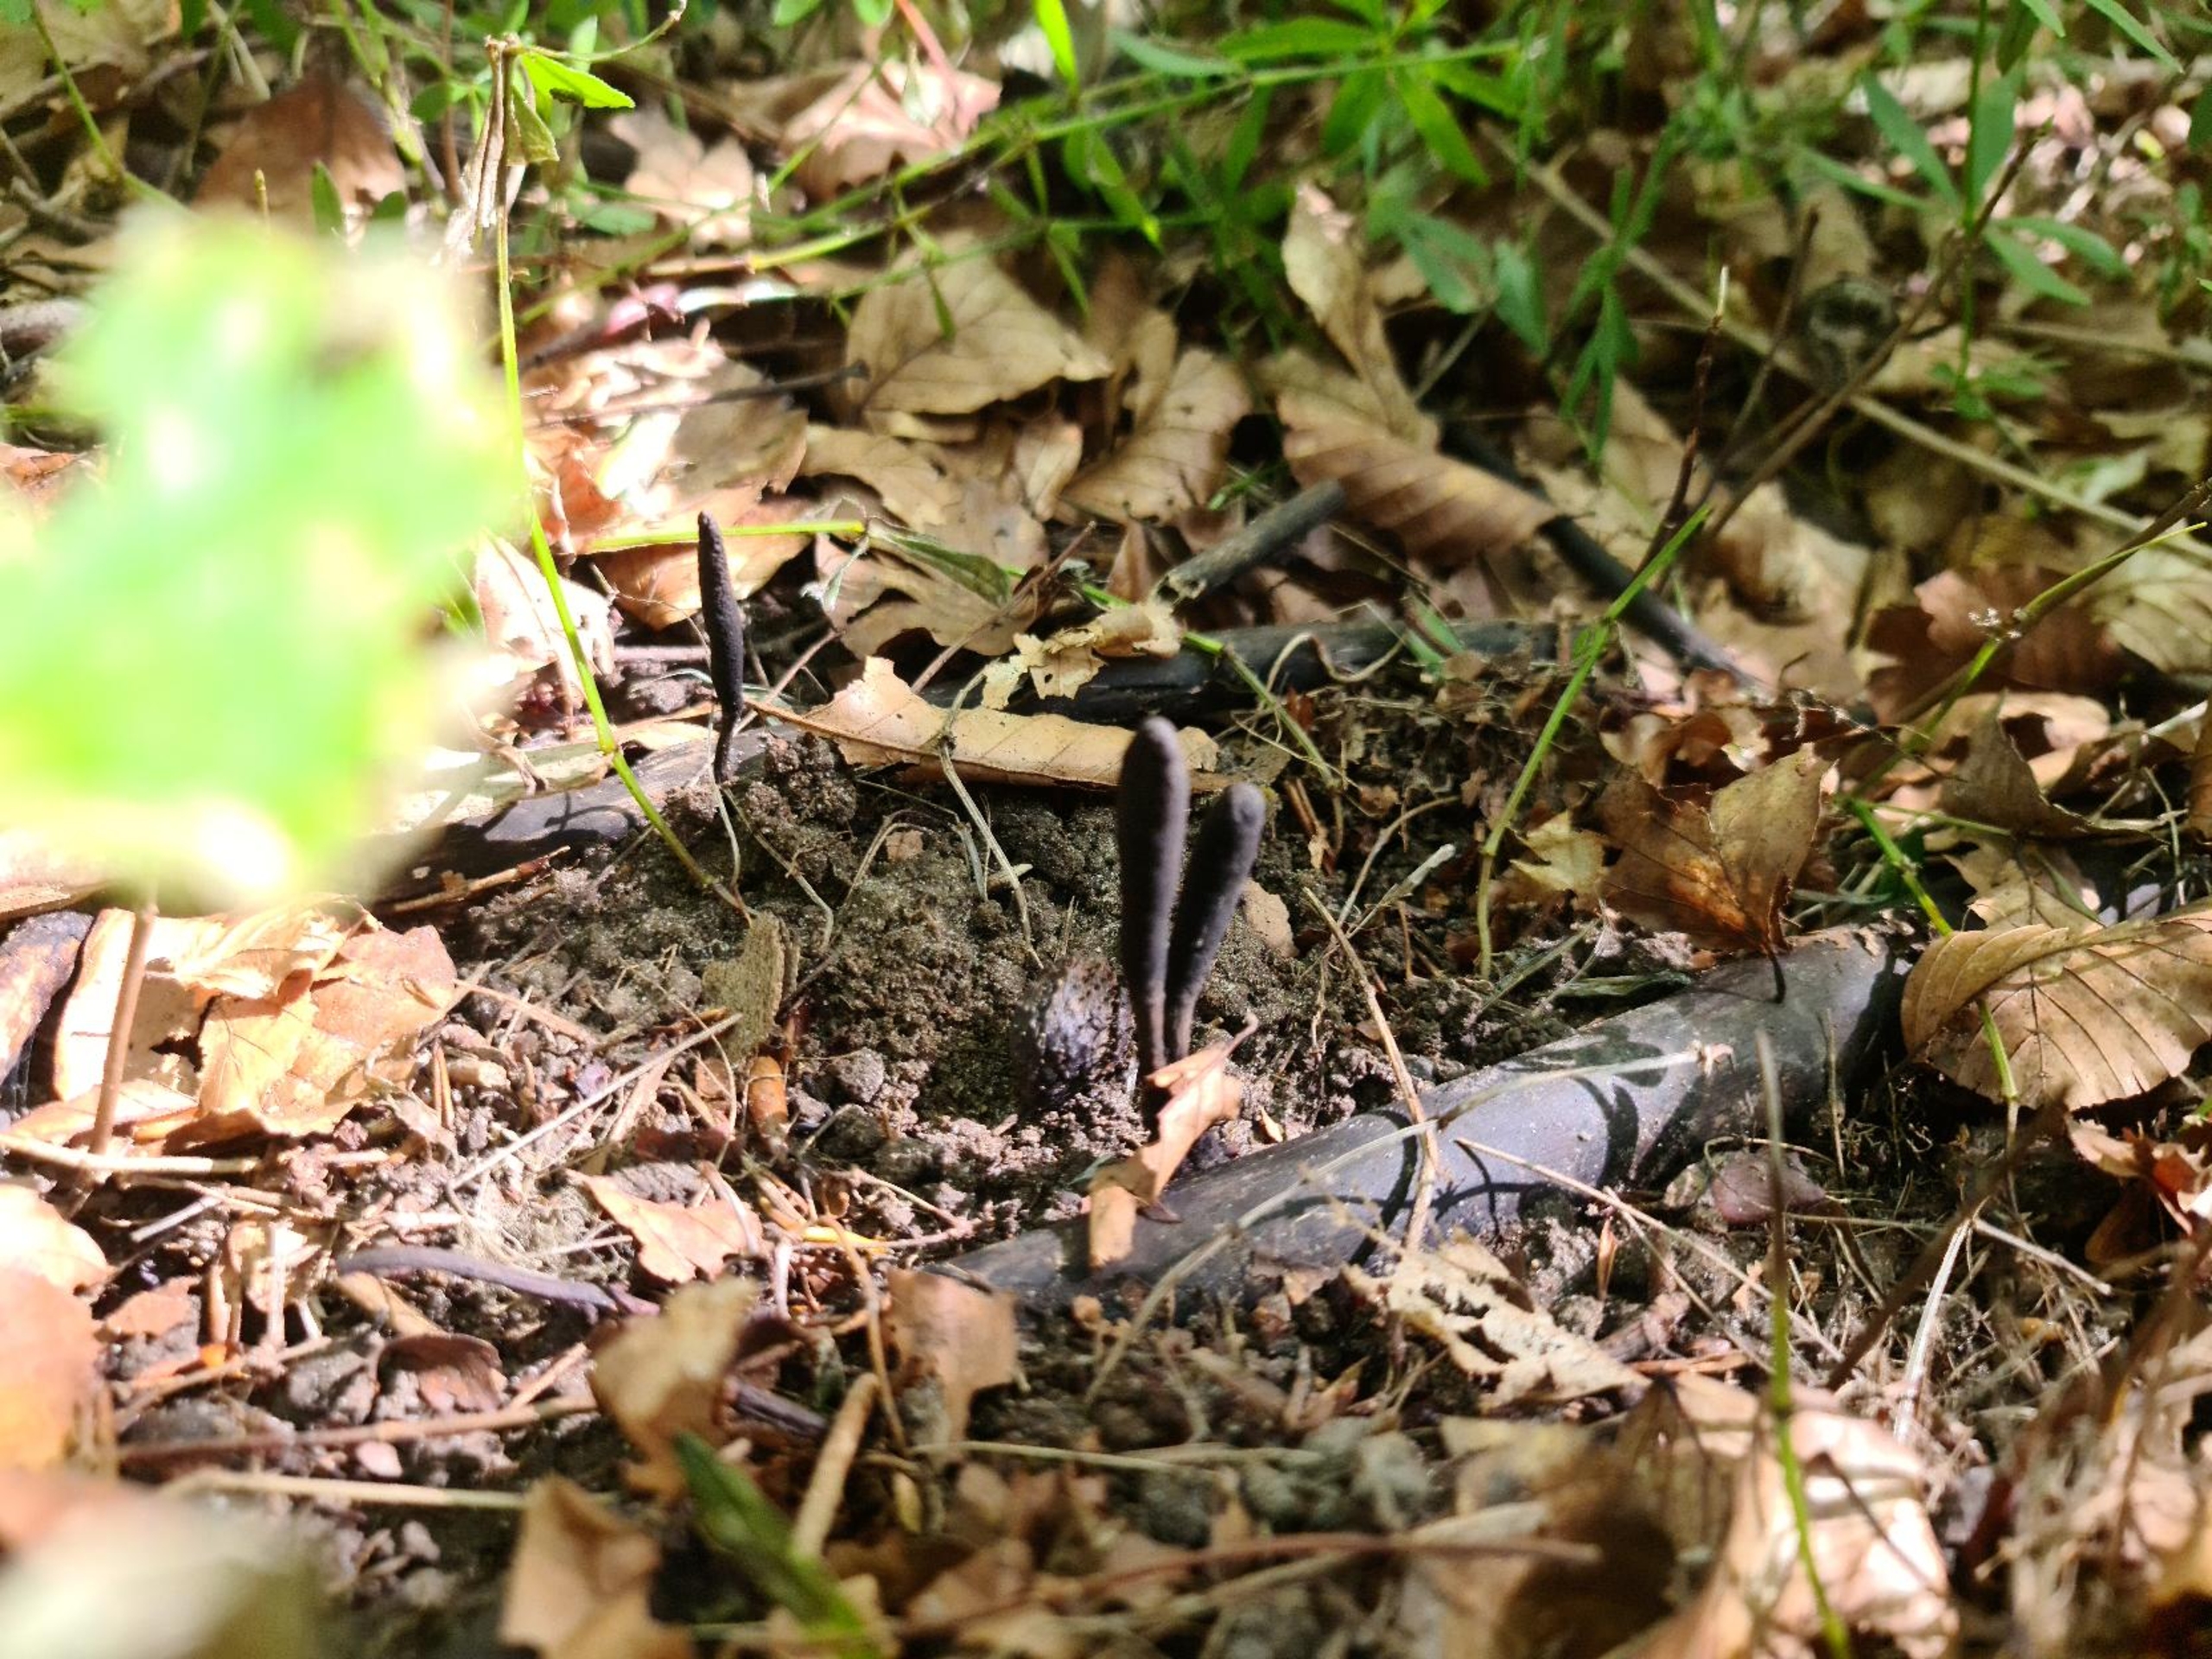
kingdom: Fungi
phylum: Ascomycota
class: Sordariomycetes
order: Xylariales
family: Xylariaceae
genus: Xylaria
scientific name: Xylaria longipes
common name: Slank stødsvamp
